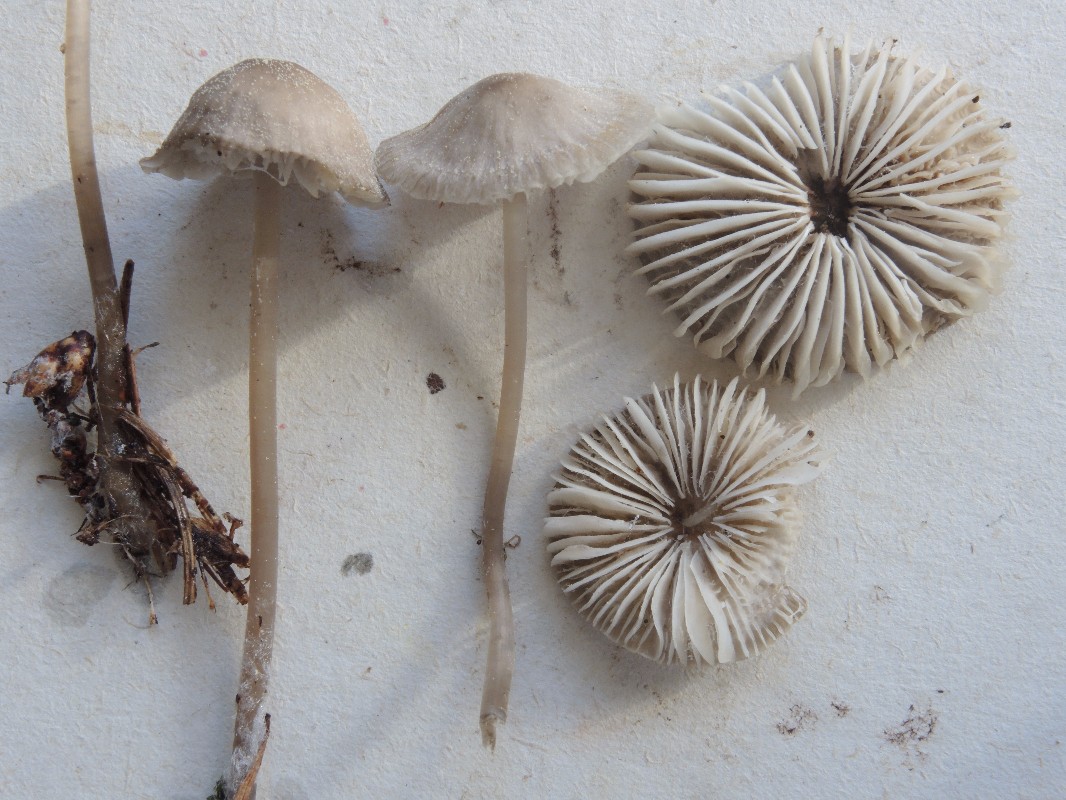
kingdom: Fungi
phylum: Basidiomycota
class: Agaricomycetes
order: Agaricales
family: Mycenaceae
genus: Mycena
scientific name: Mycena leptocephala
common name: klor-huesvamp
